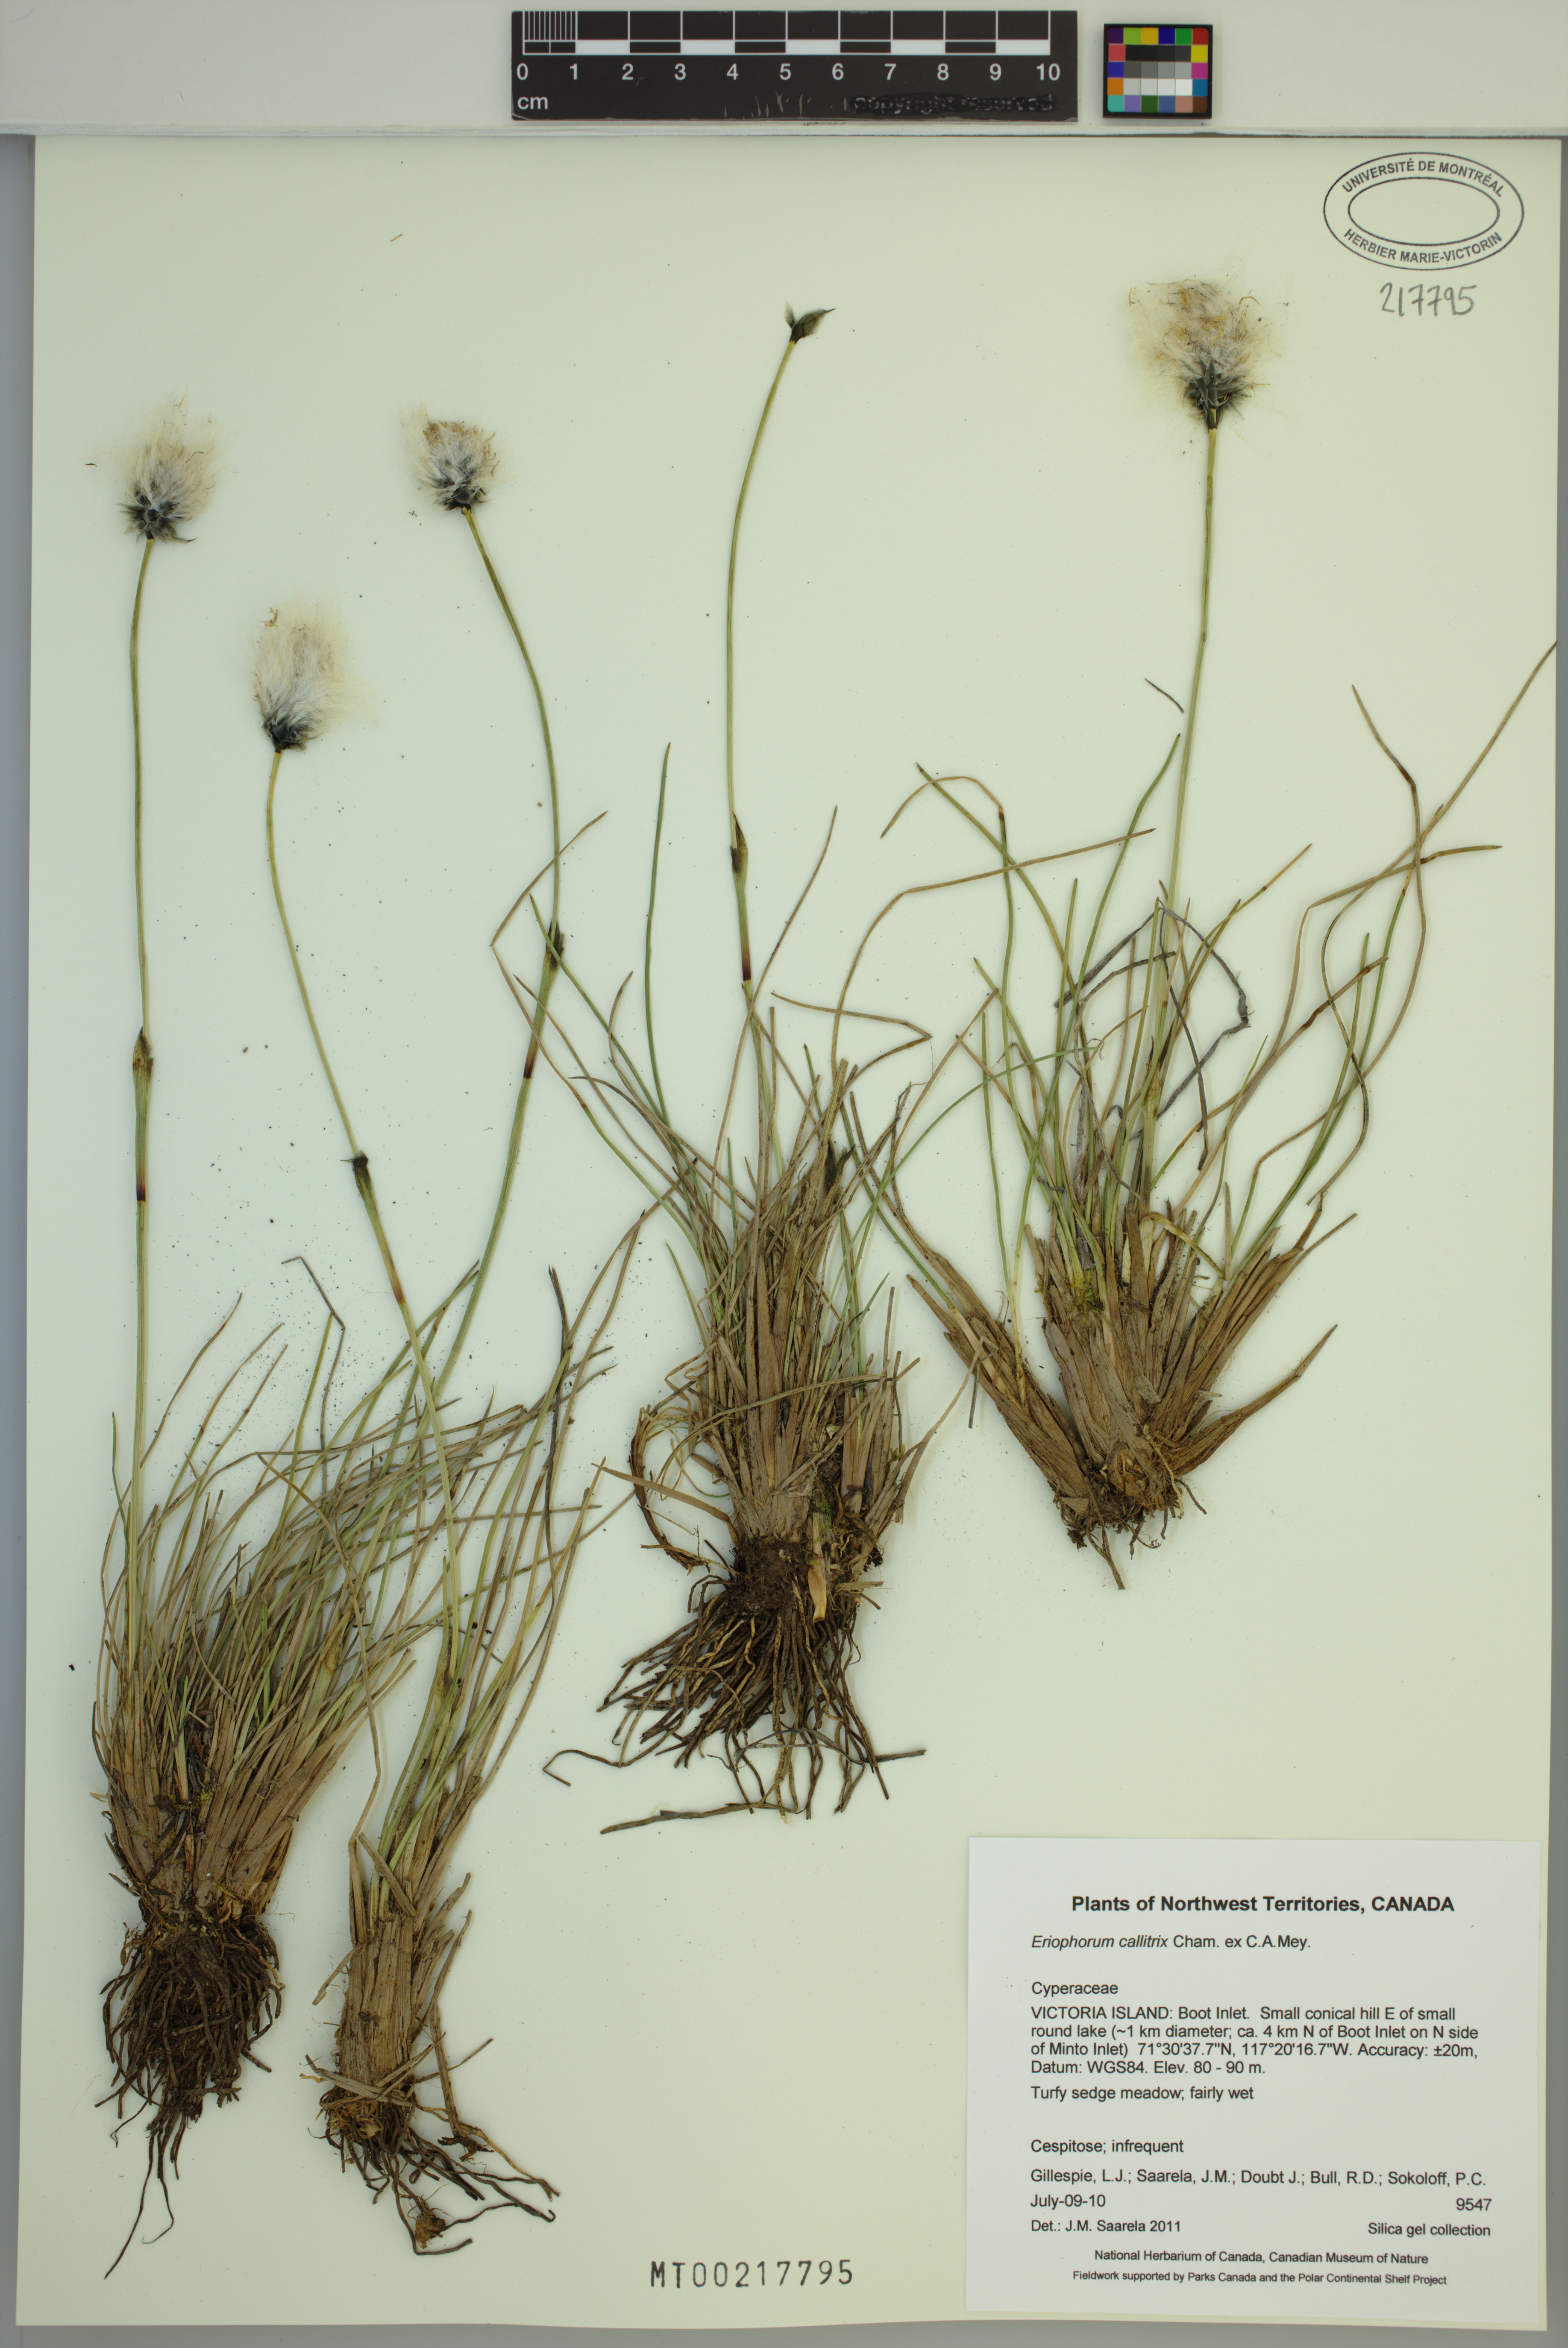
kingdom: Plantae
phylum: Tracheophyta
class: Liliopsida
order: Poales
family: Cyperaceae
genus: Eriophorum
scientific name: Eriophorum callitrix
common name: Arctic cottongrass
